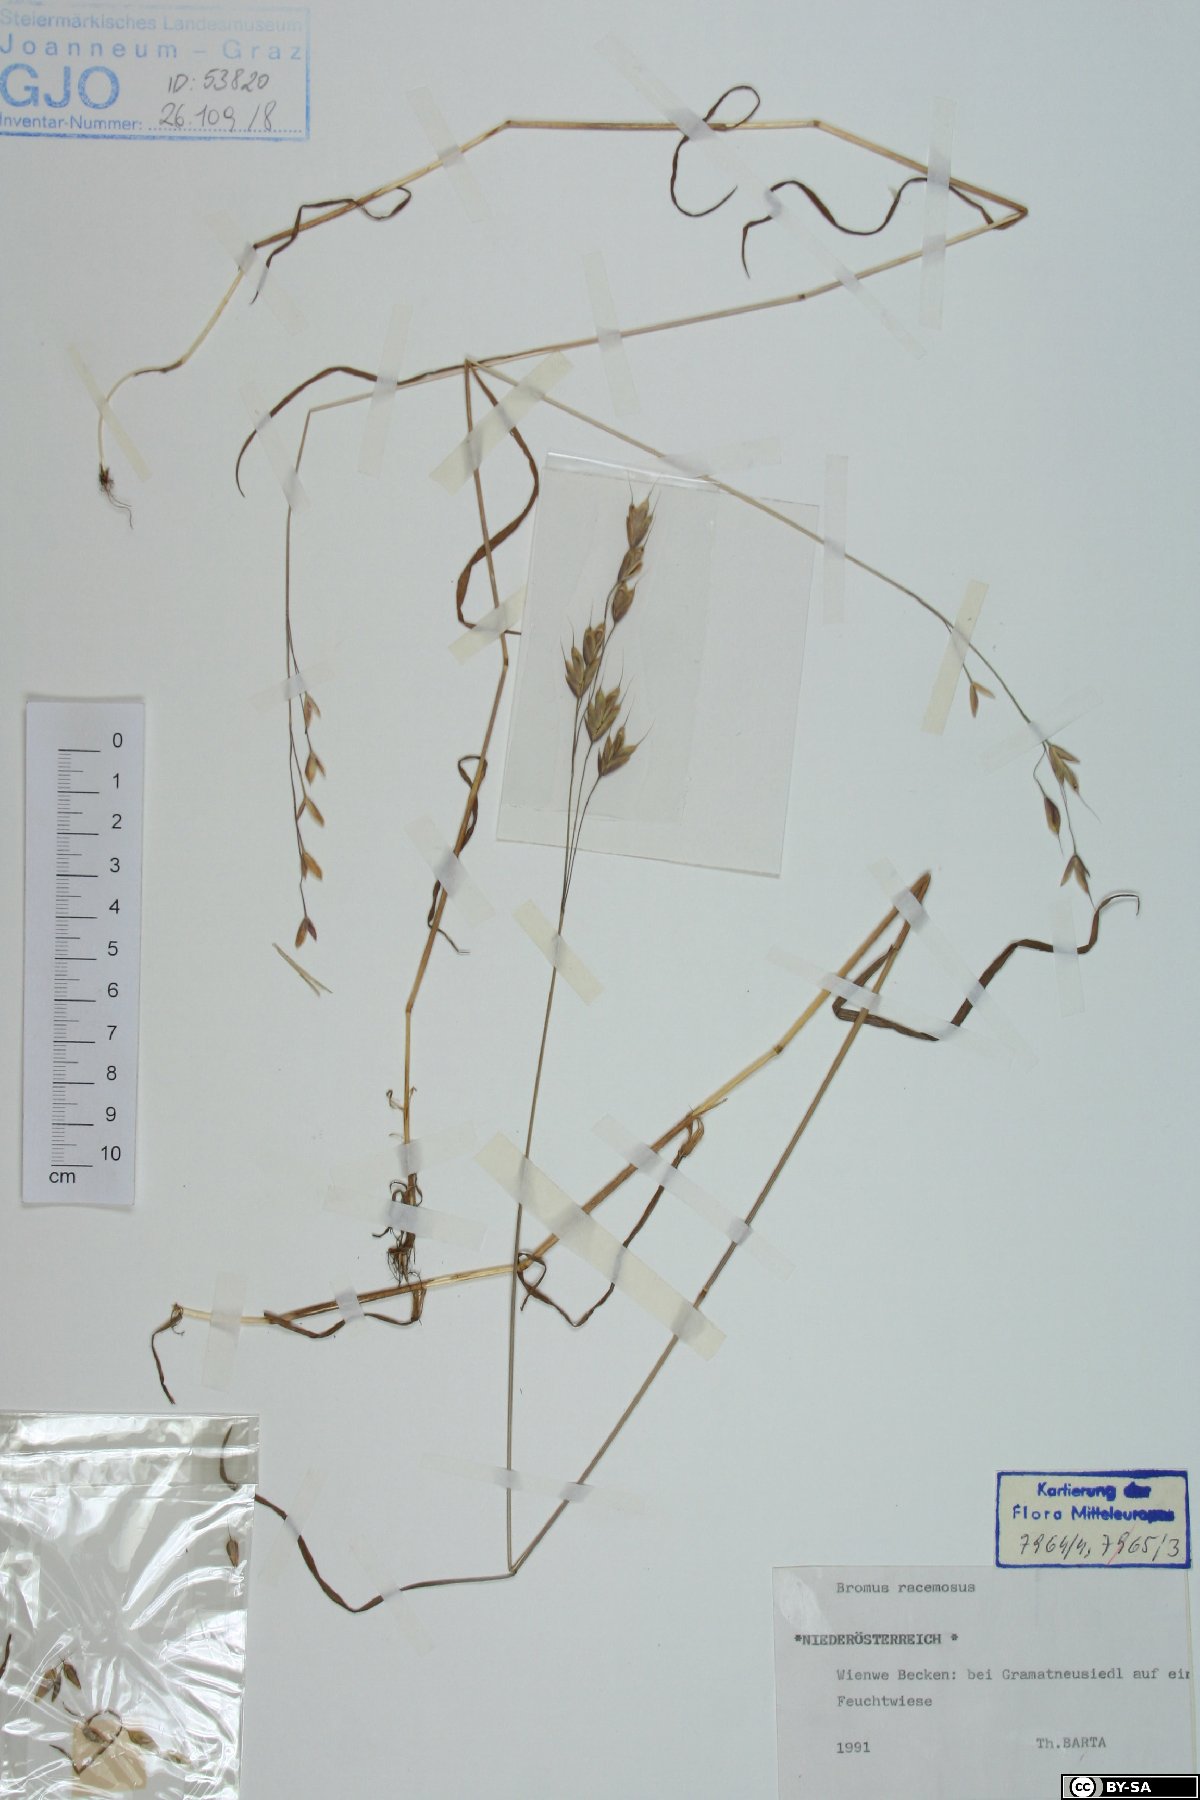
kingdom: Plantae
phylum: Tracheophyta
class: Liliopsida
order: Poales
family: Poaceae
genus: Bromus
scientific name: Bromus racemosus
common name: Bald brome
